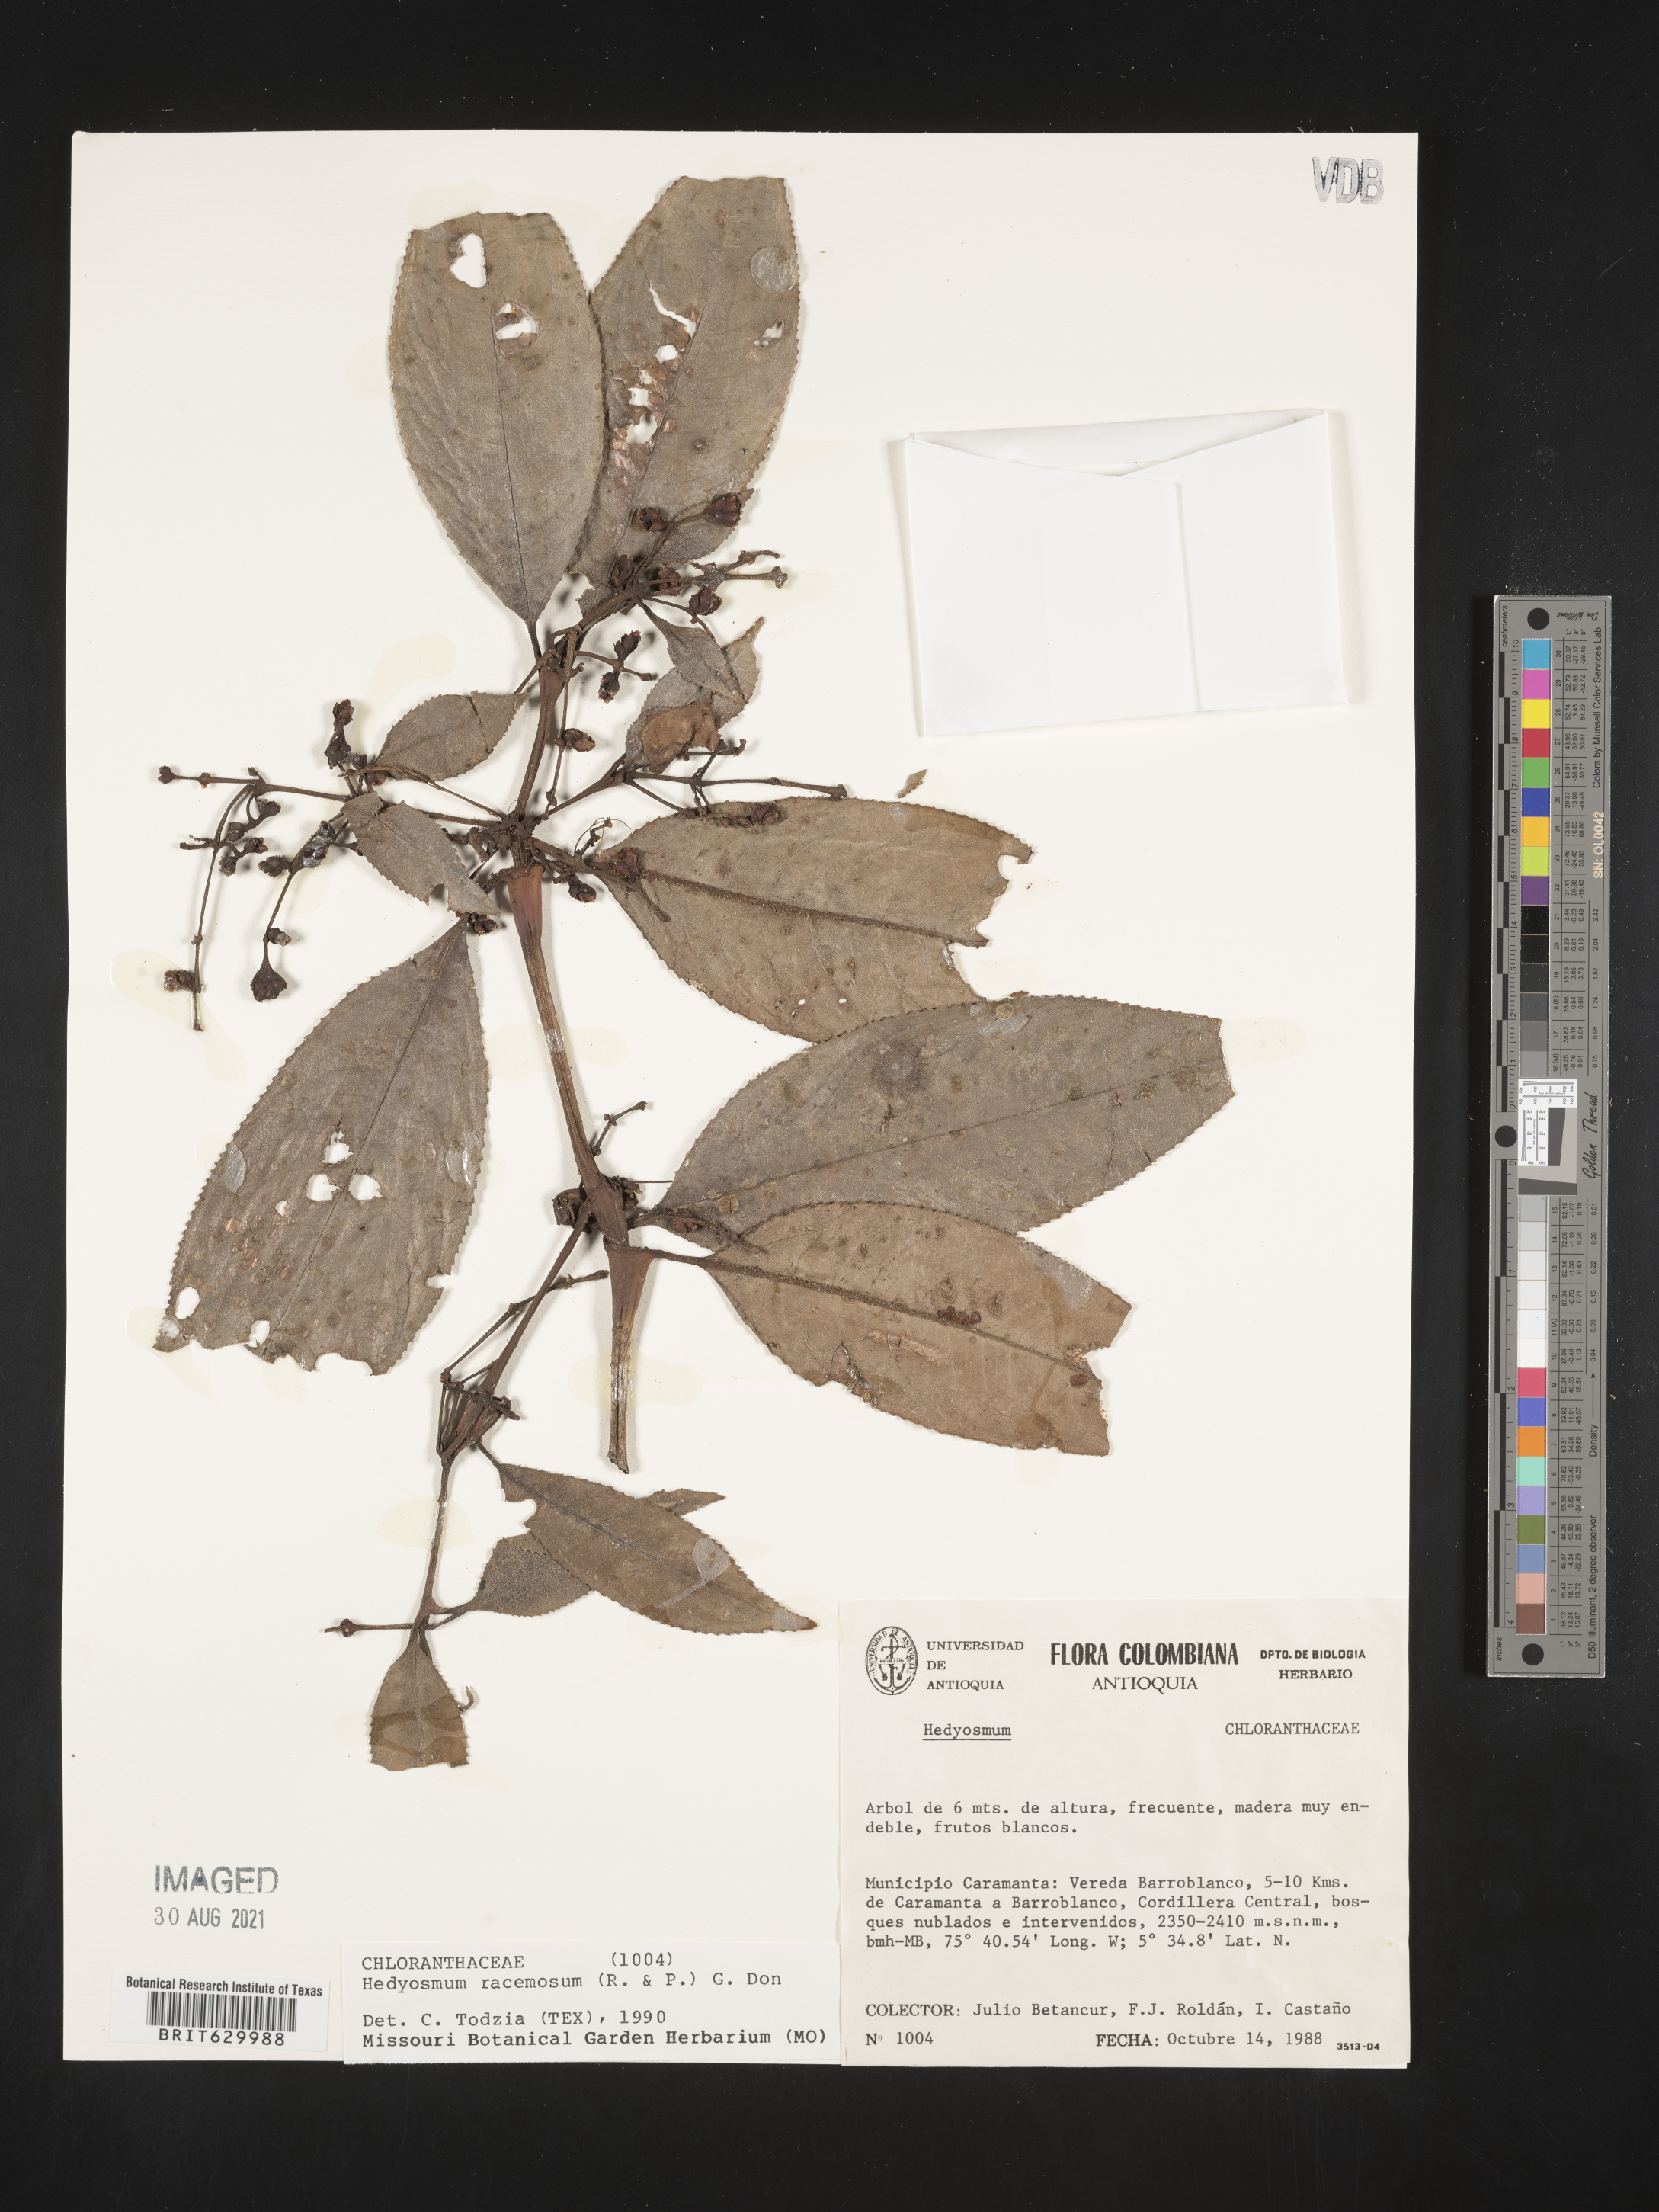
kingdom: Plantae
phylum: Tracheophyta
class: Magnoliopsida
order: Chloranthales
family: Chloranthaceae
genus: Hedyosmum
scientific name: Hedyosmum racemosum
